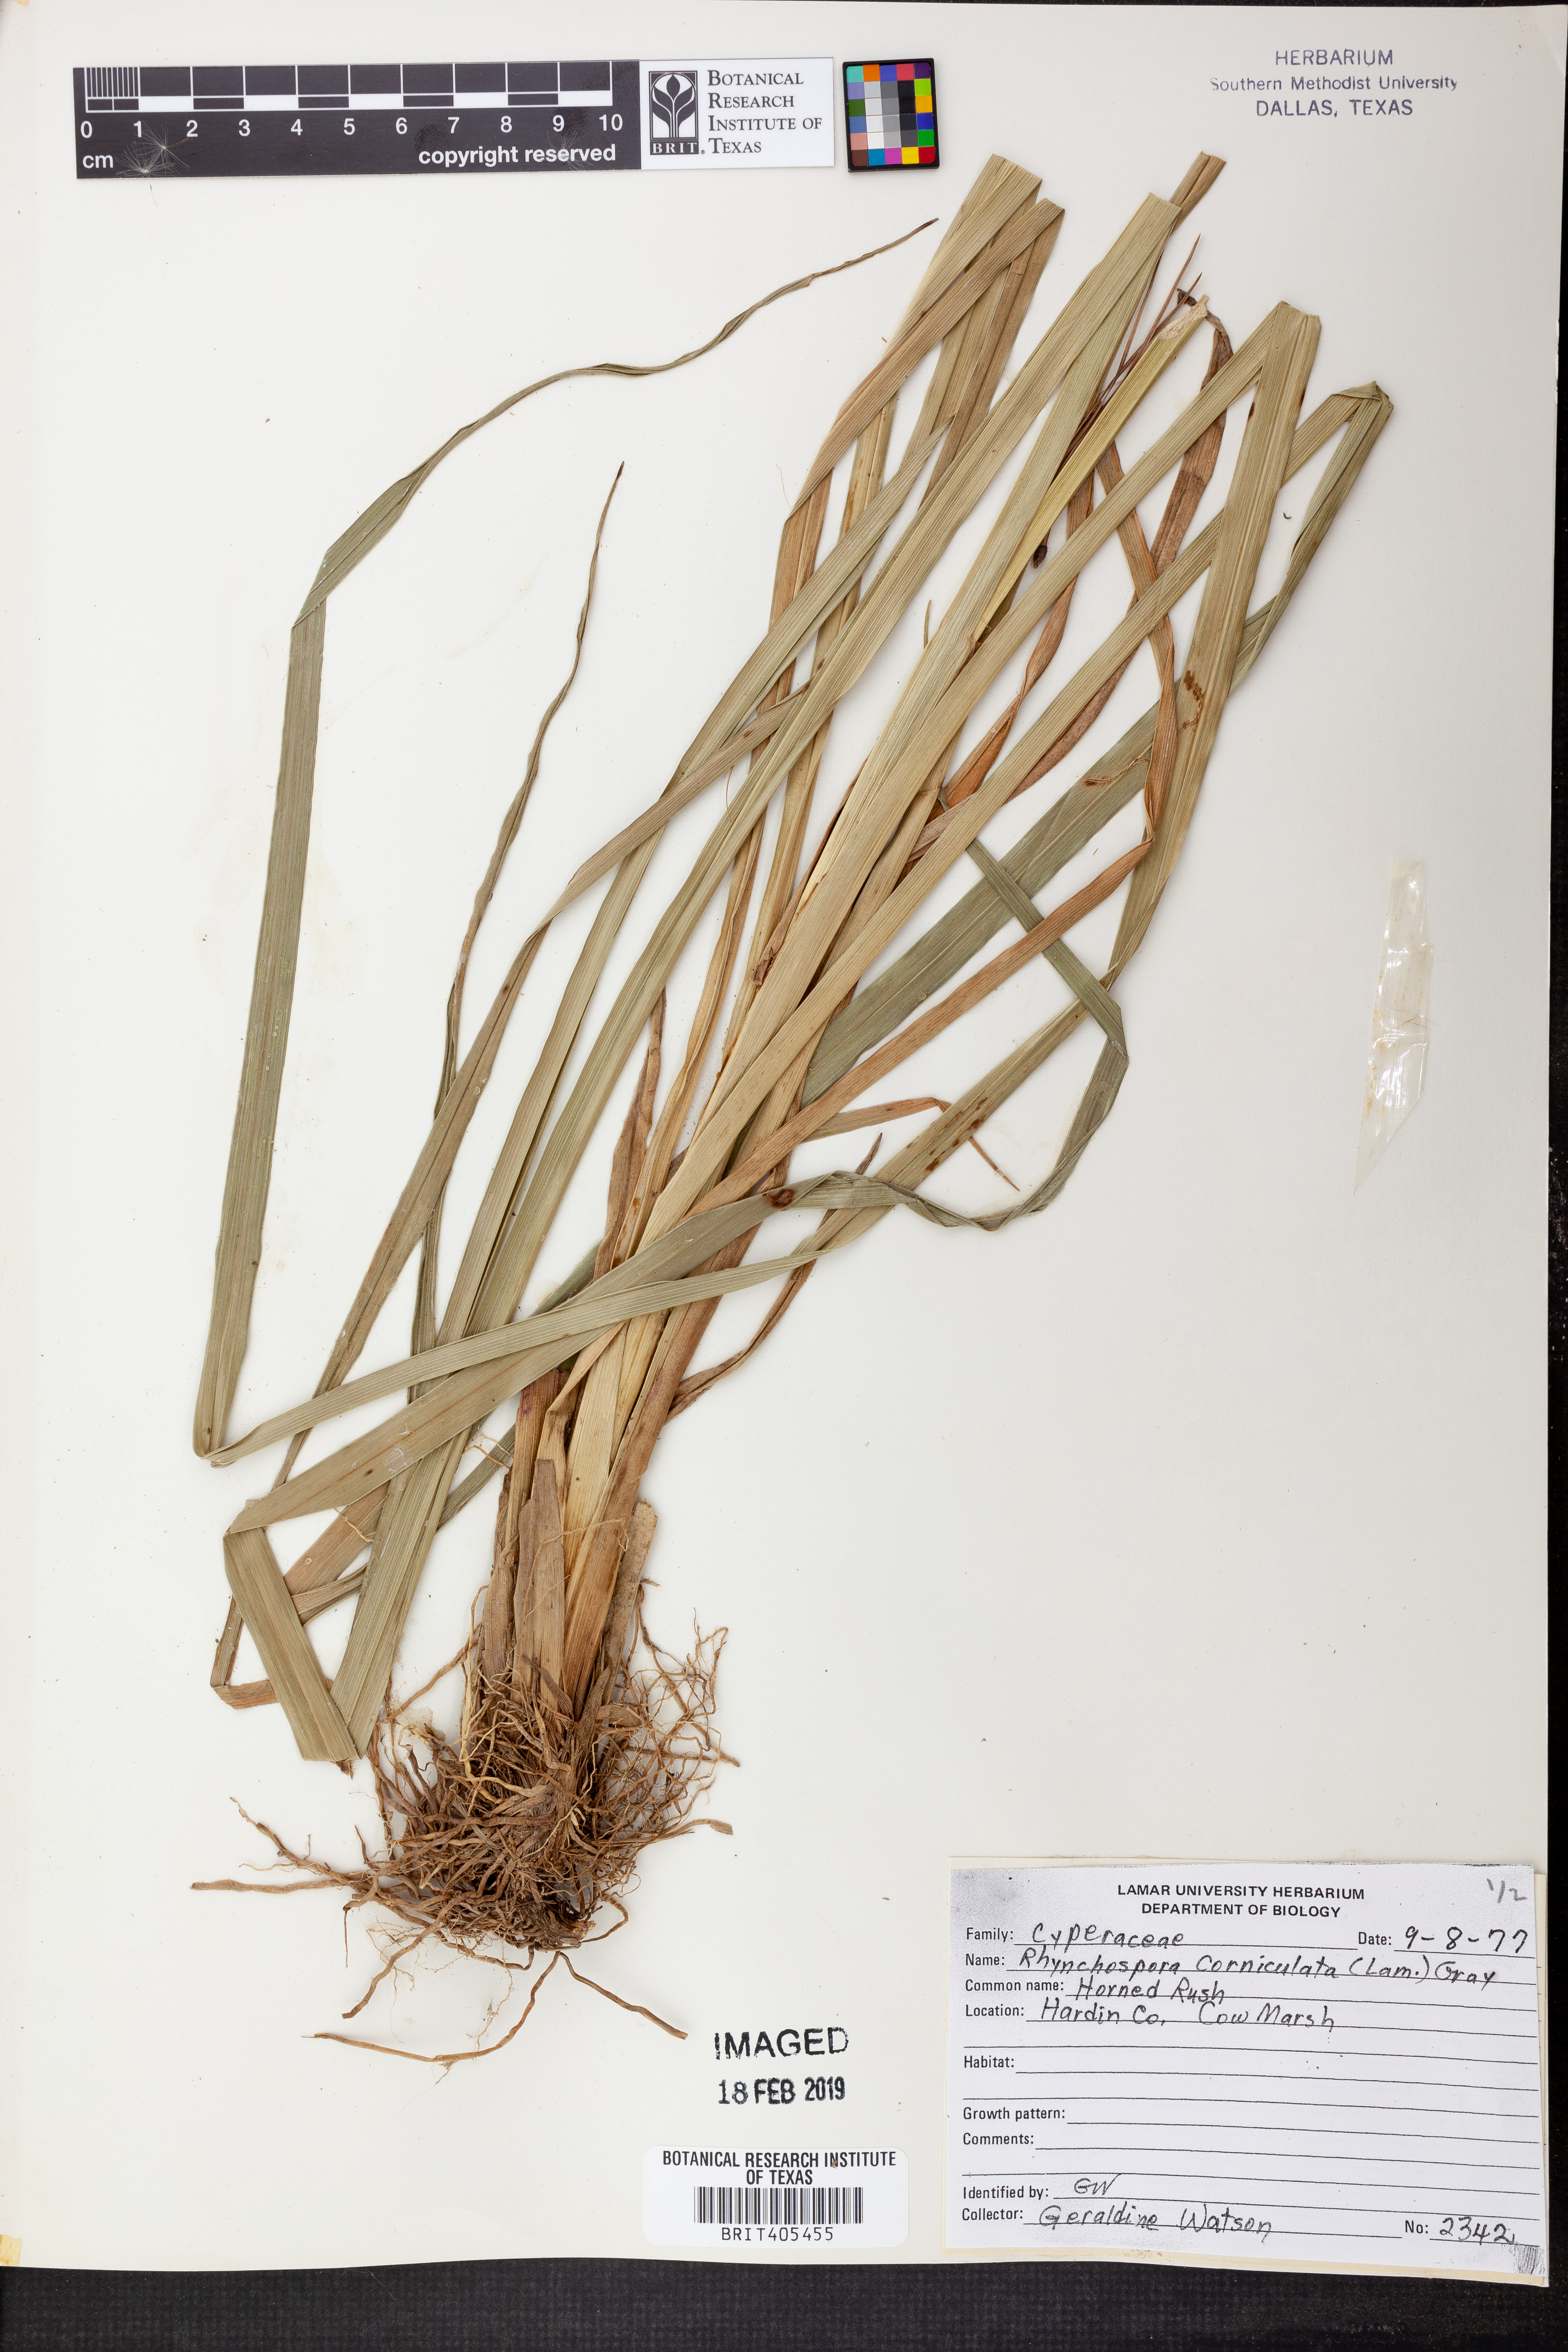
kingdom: Plantae
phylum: Tracheophyta
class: Liliopsida
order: Poales
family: Cyperaceae
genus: Rhynchospora
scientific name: Rhynchospora corniculata
